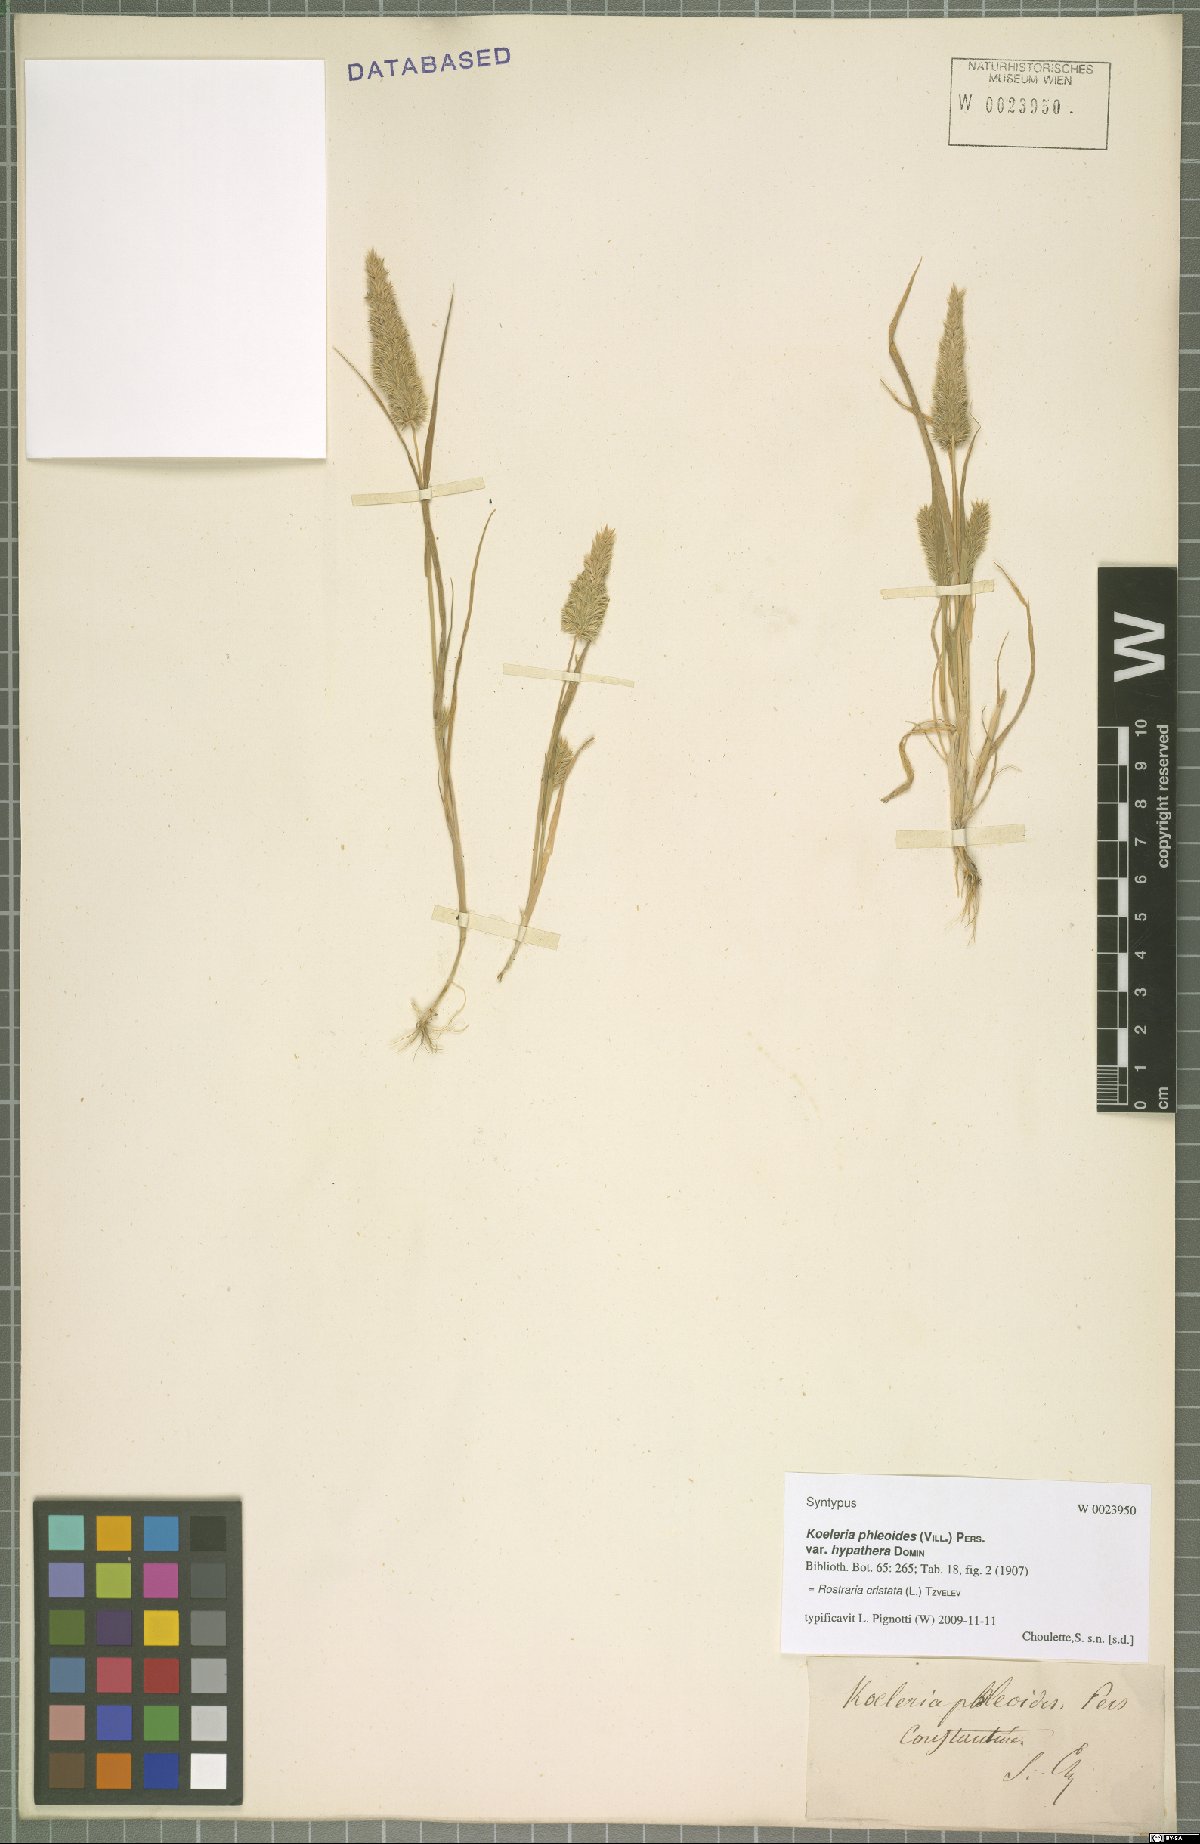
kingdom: Plantae
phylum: Tracheophyta
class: Liliopsida
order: Poales
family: Poaceae
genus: Rostraria
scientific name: Rostraria cristata
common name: Mediterranean hair-grass
